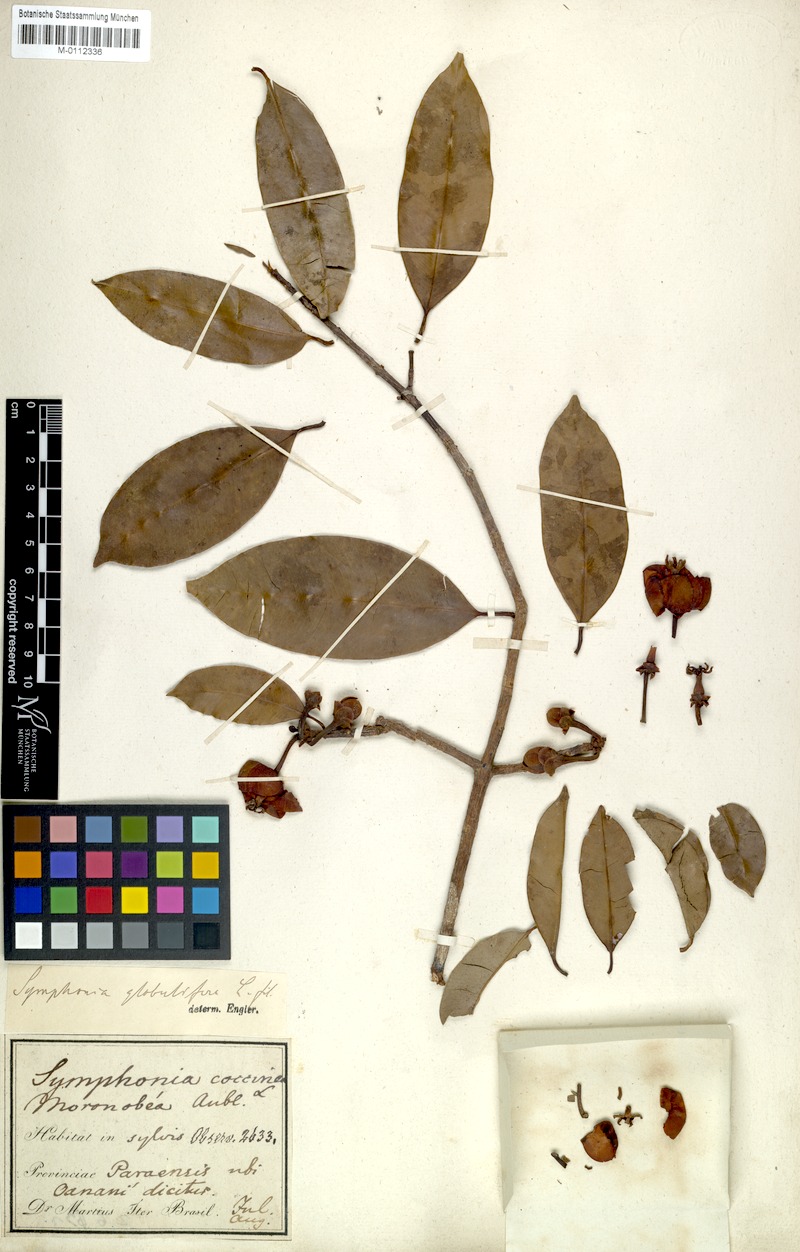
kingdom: Plantae
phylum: Tracheophyta
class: Magnoliopsida
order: Malpighiales
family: Clusiaceae
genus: Symphonia
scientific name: Symphonia globulifera
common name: Boarwood
